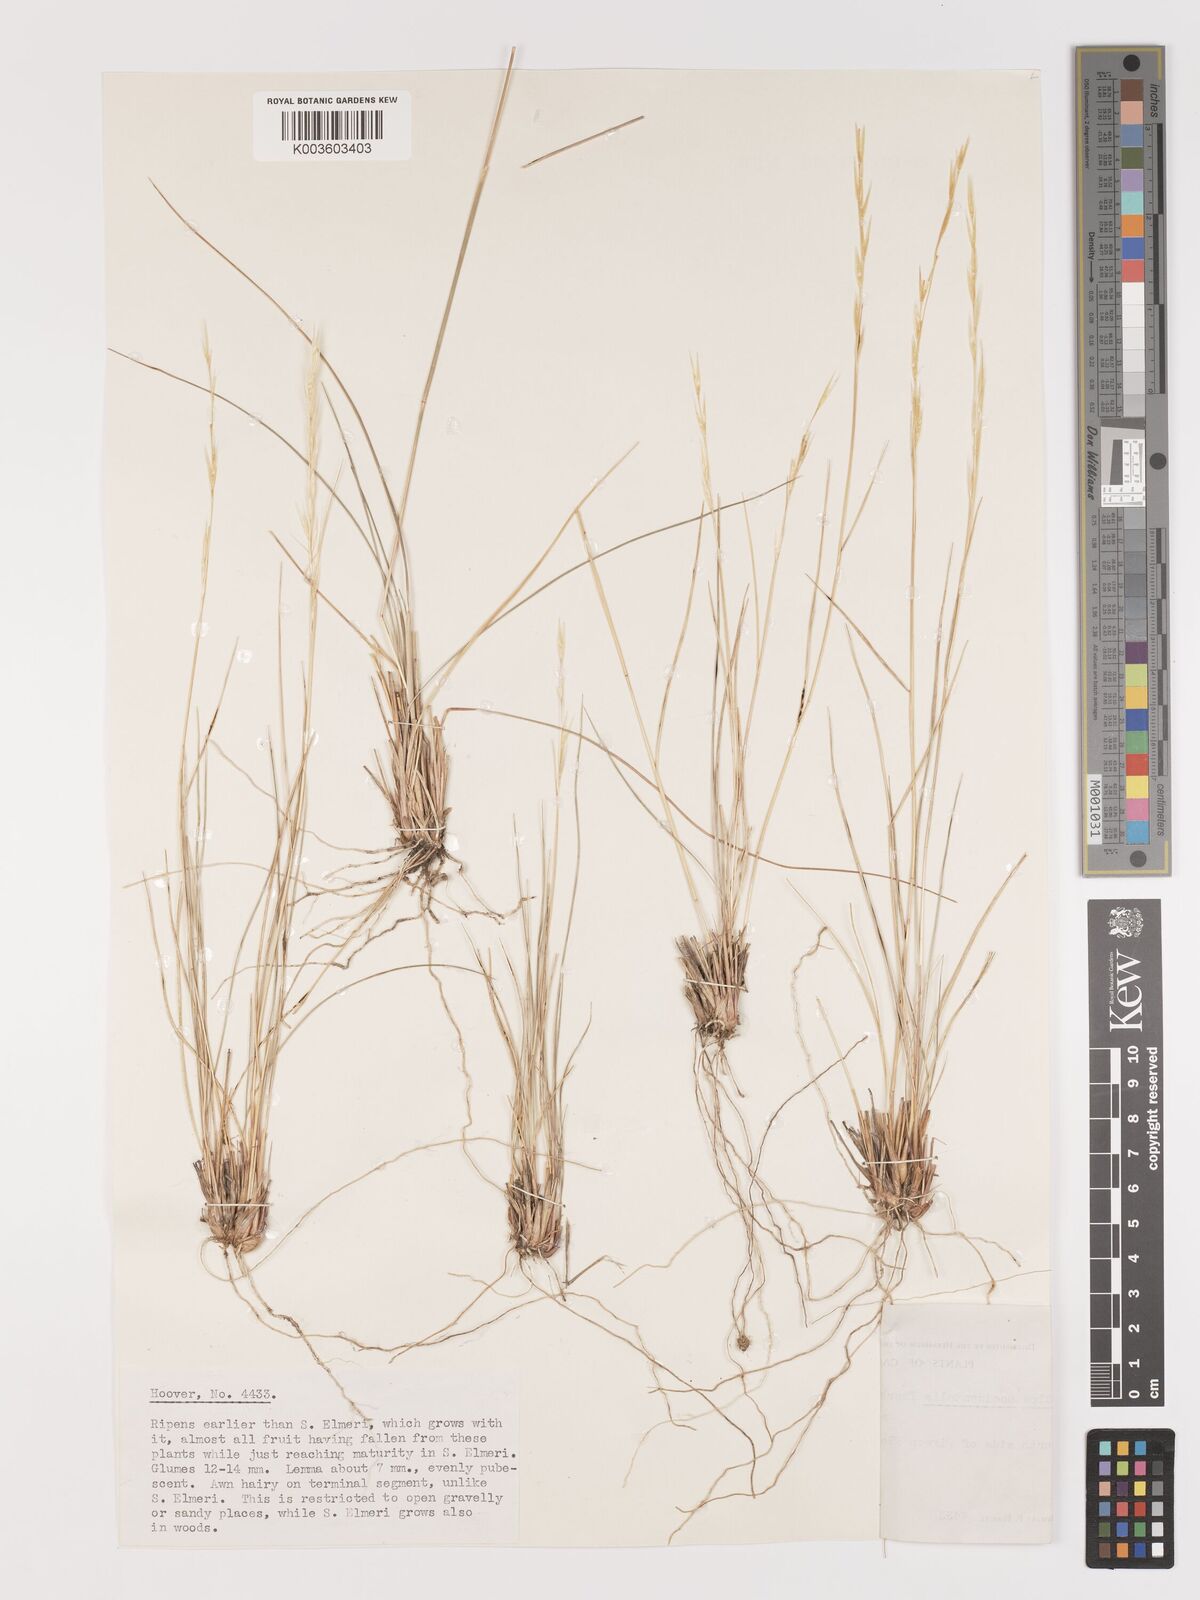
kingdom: Plantae
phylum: Tracheophyta
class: Liliopsida
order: Poales
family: Poaceae
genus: Eriocoma
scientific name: Eriocoma thurberiana
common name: Thurber's needlegrass
